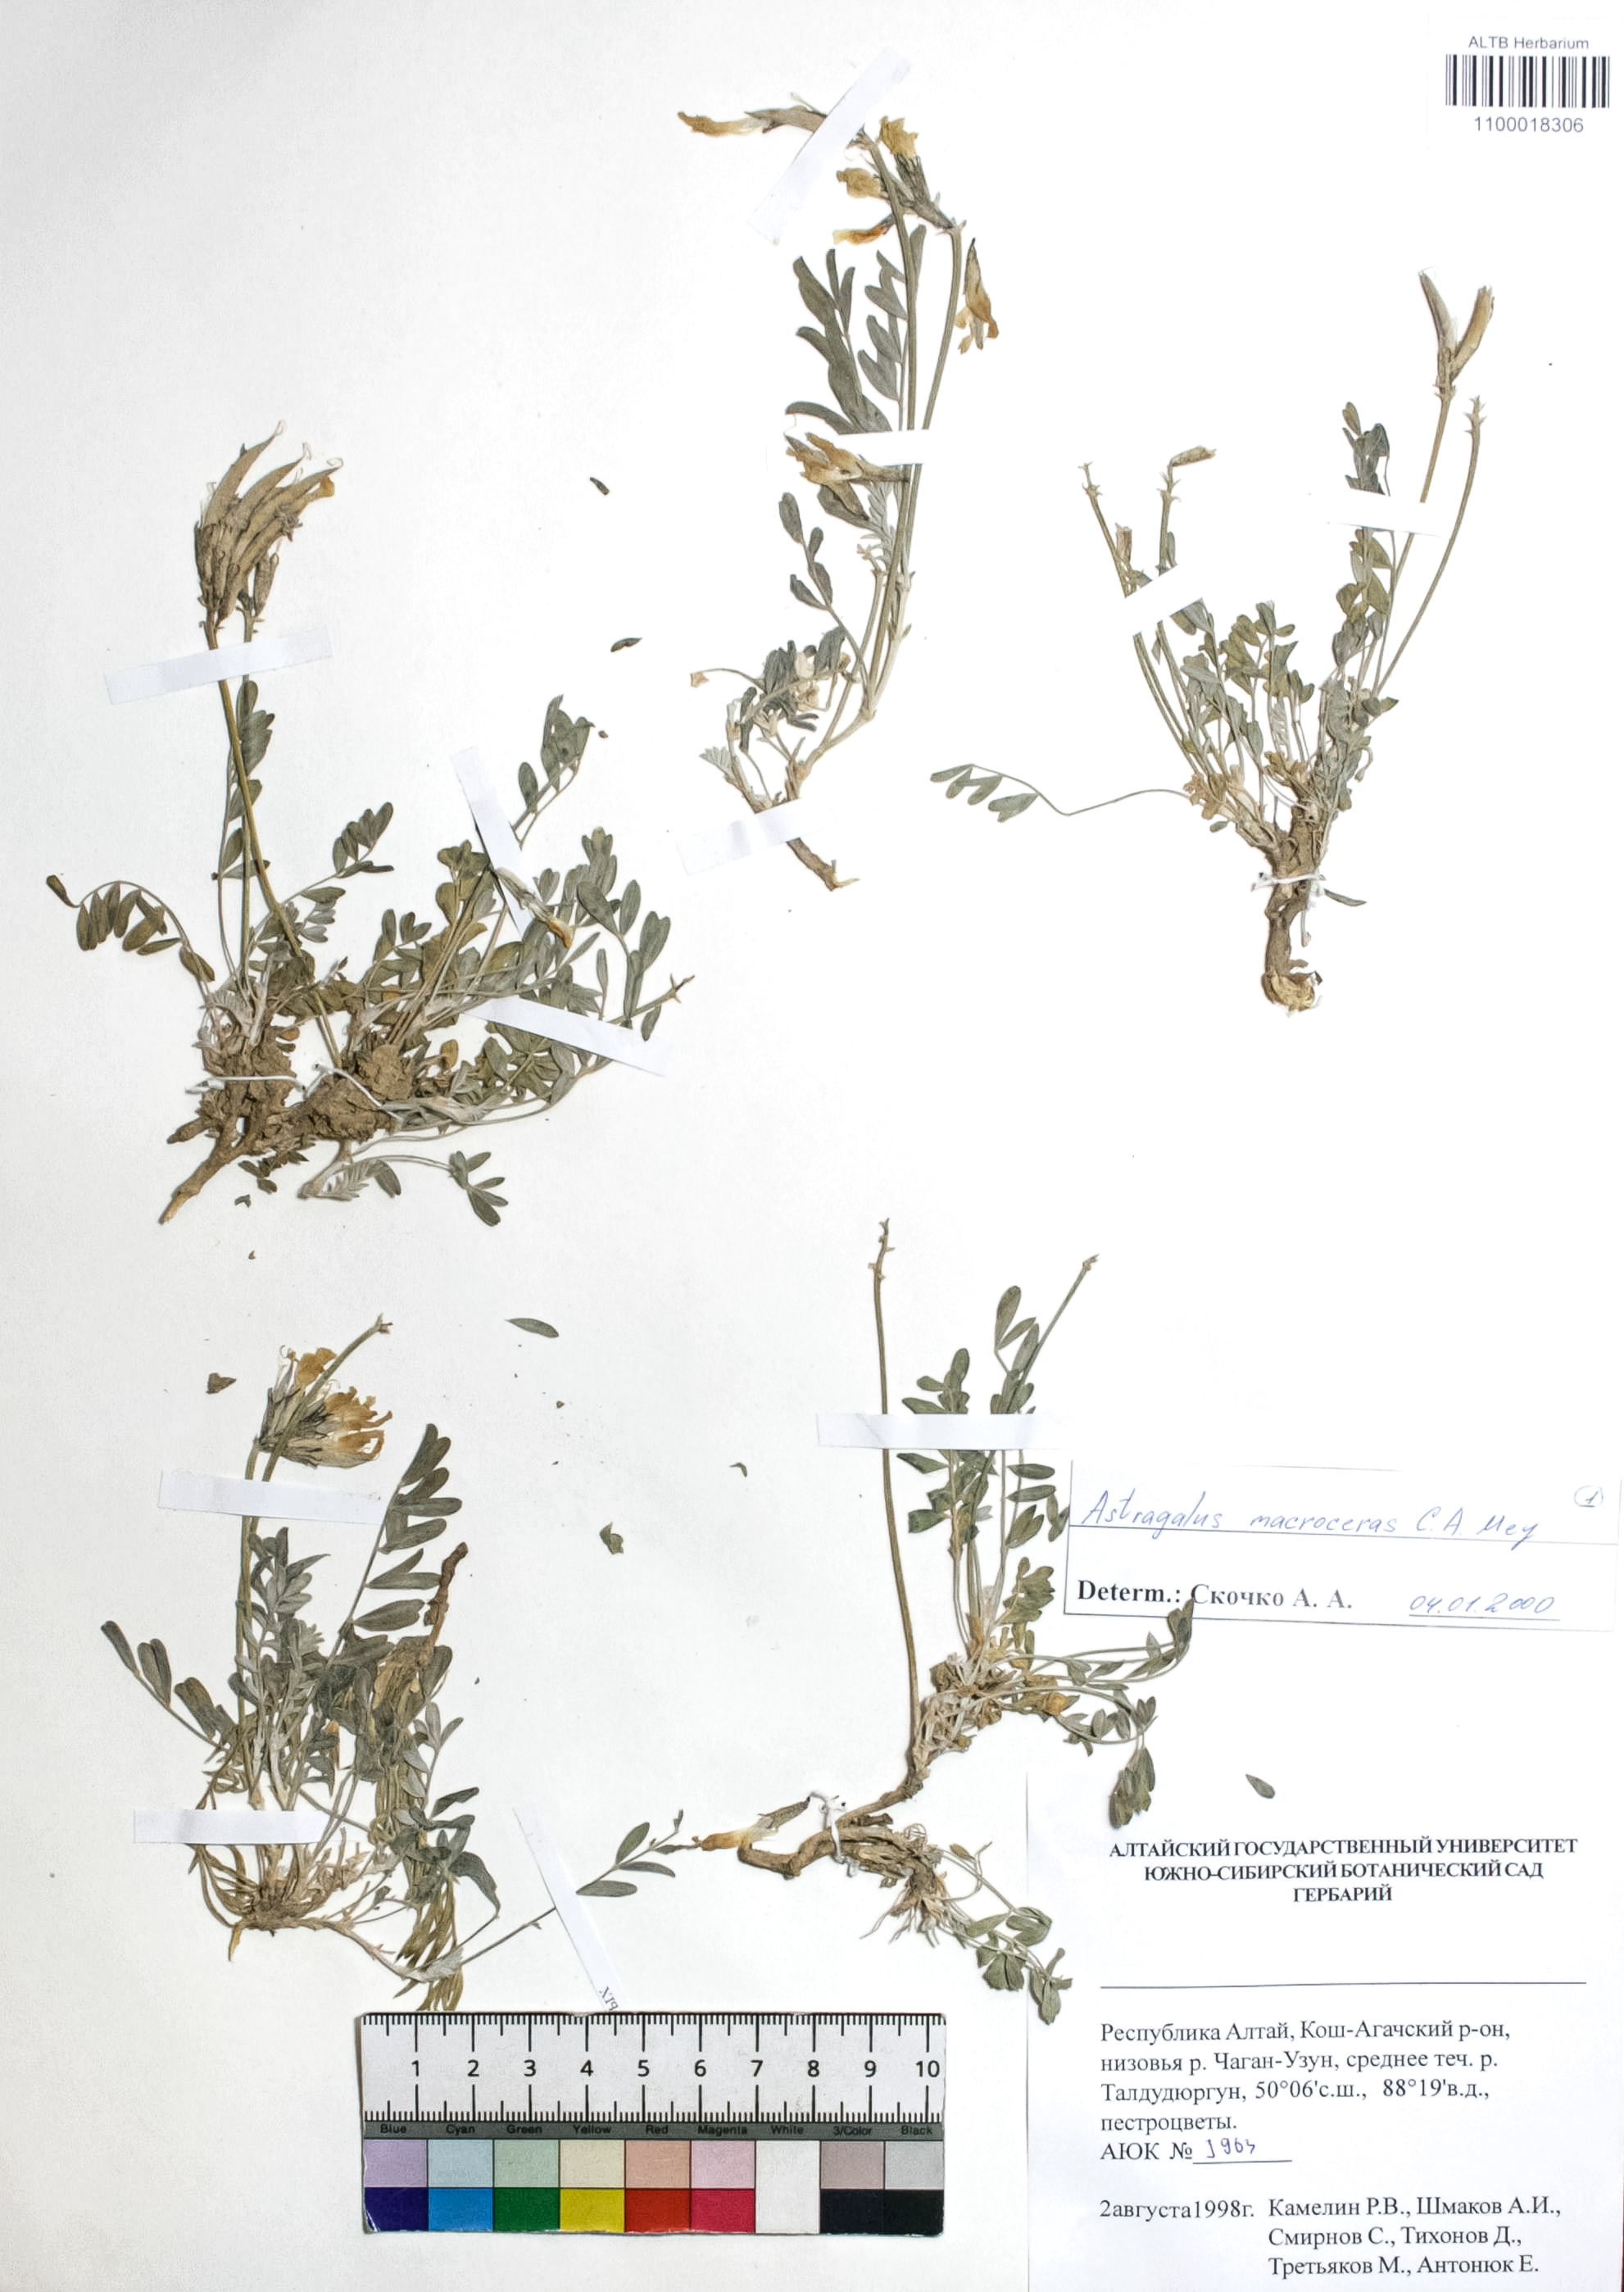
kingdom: Plantae
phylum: Tracheophyta
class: Magnoliopsida
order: Fabales
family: Fabaceae
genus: Astragalus
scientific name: Astragalus macroceras
